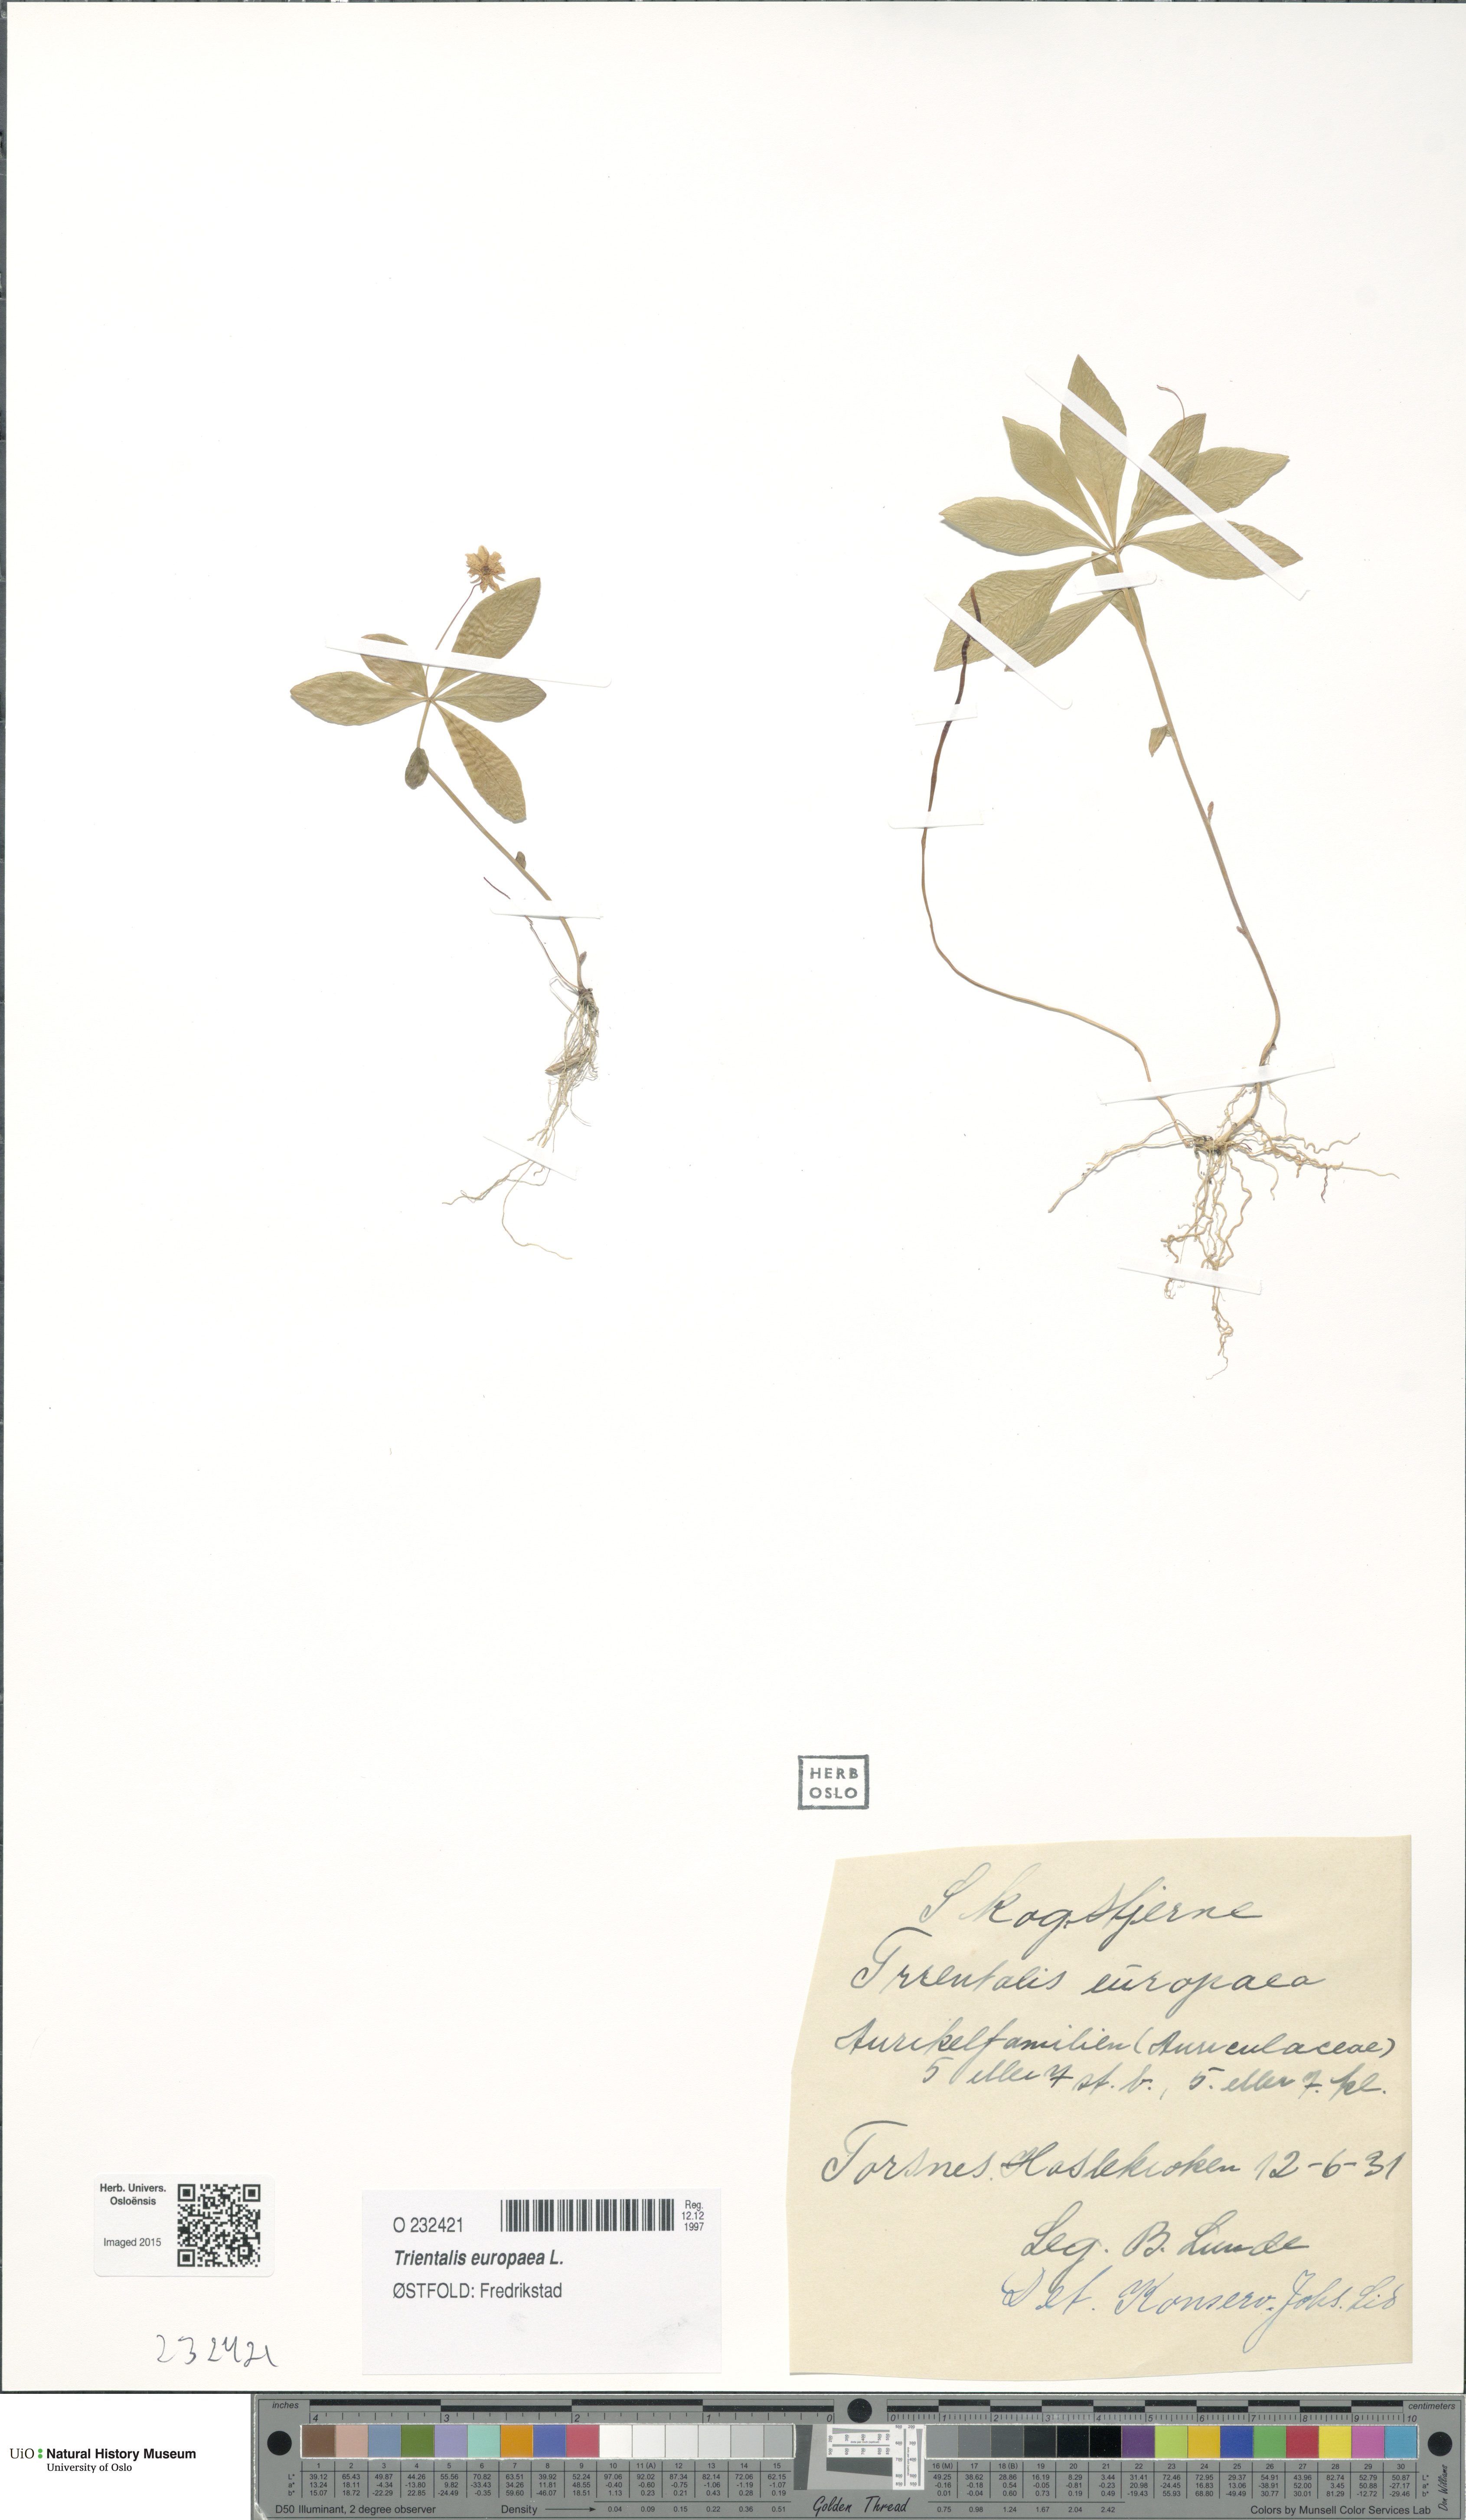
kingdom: Plantae
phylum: Tracheophyta
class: Magnoliopsida
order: Ericales
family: Primulaceae
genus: Lysimachia
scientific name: Lysimachia europaea
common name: Arctic starflower
